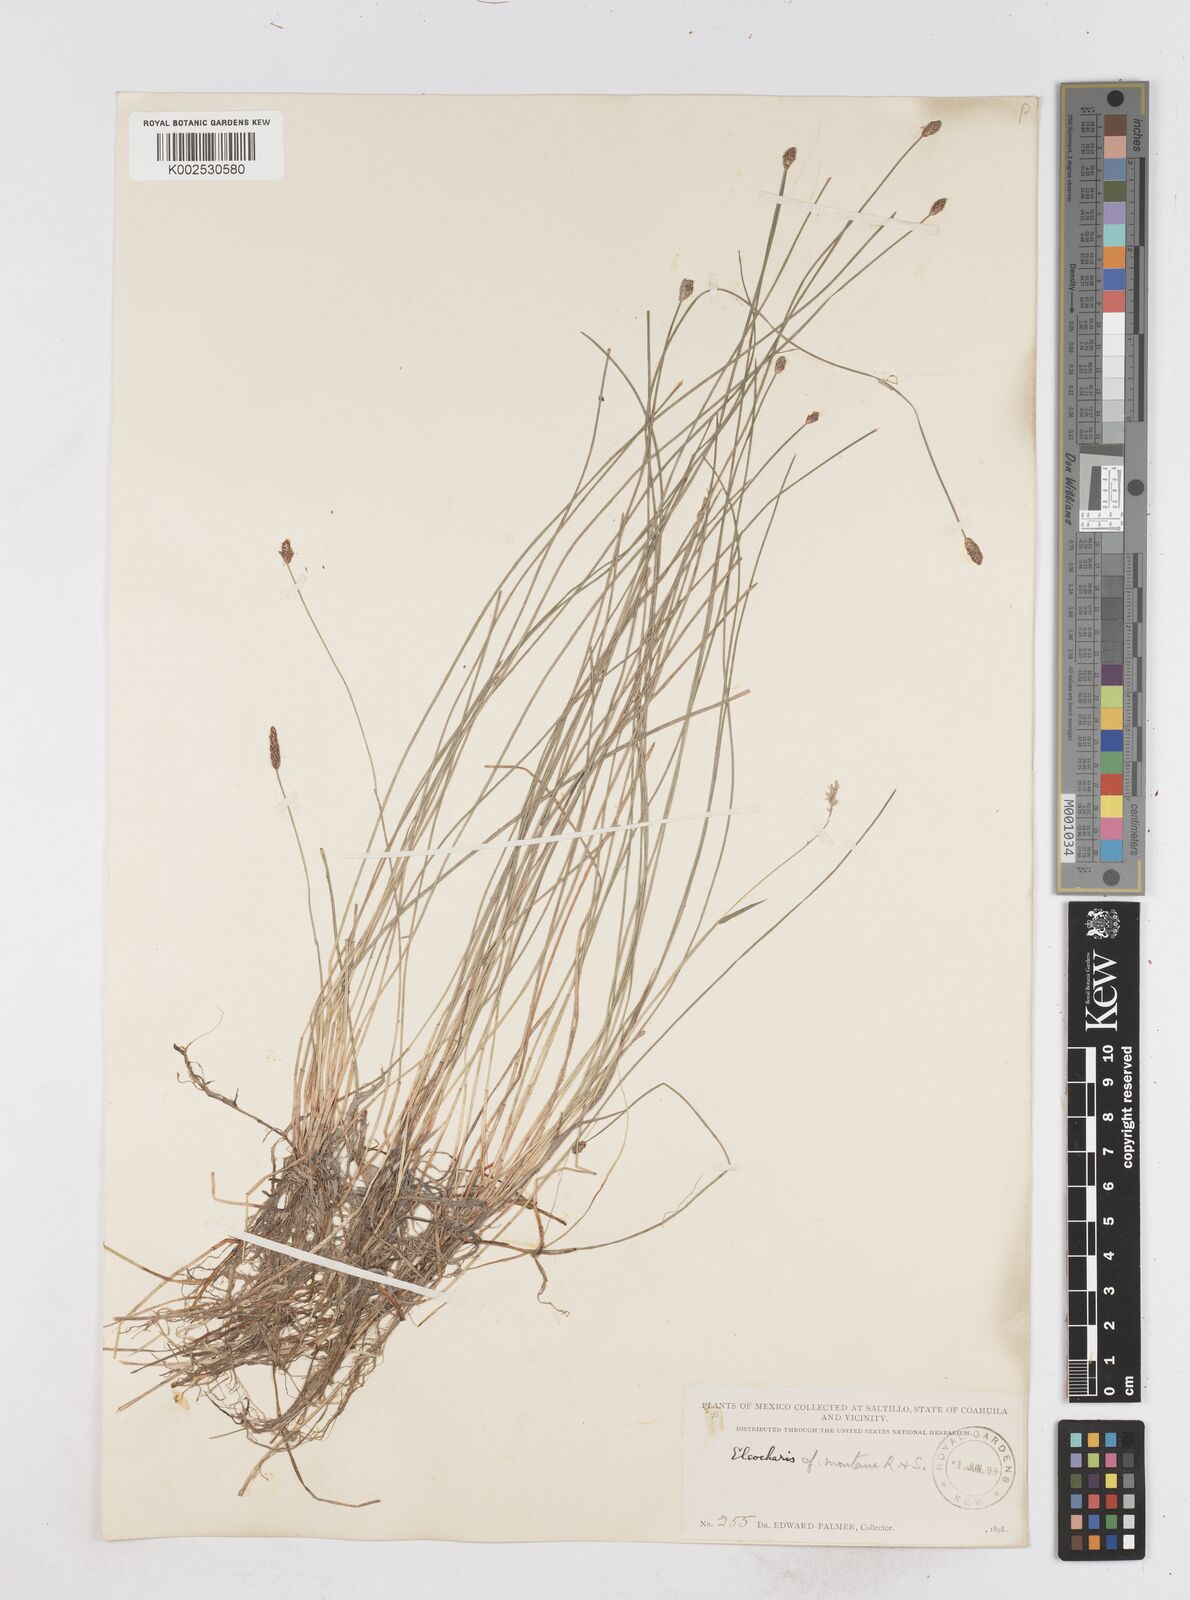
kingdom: Plantae
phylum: Tracheophyta
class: Liliopsida
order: Poales
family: Cyperaceae
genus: Eleocharis
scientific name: Eleocharis montana
